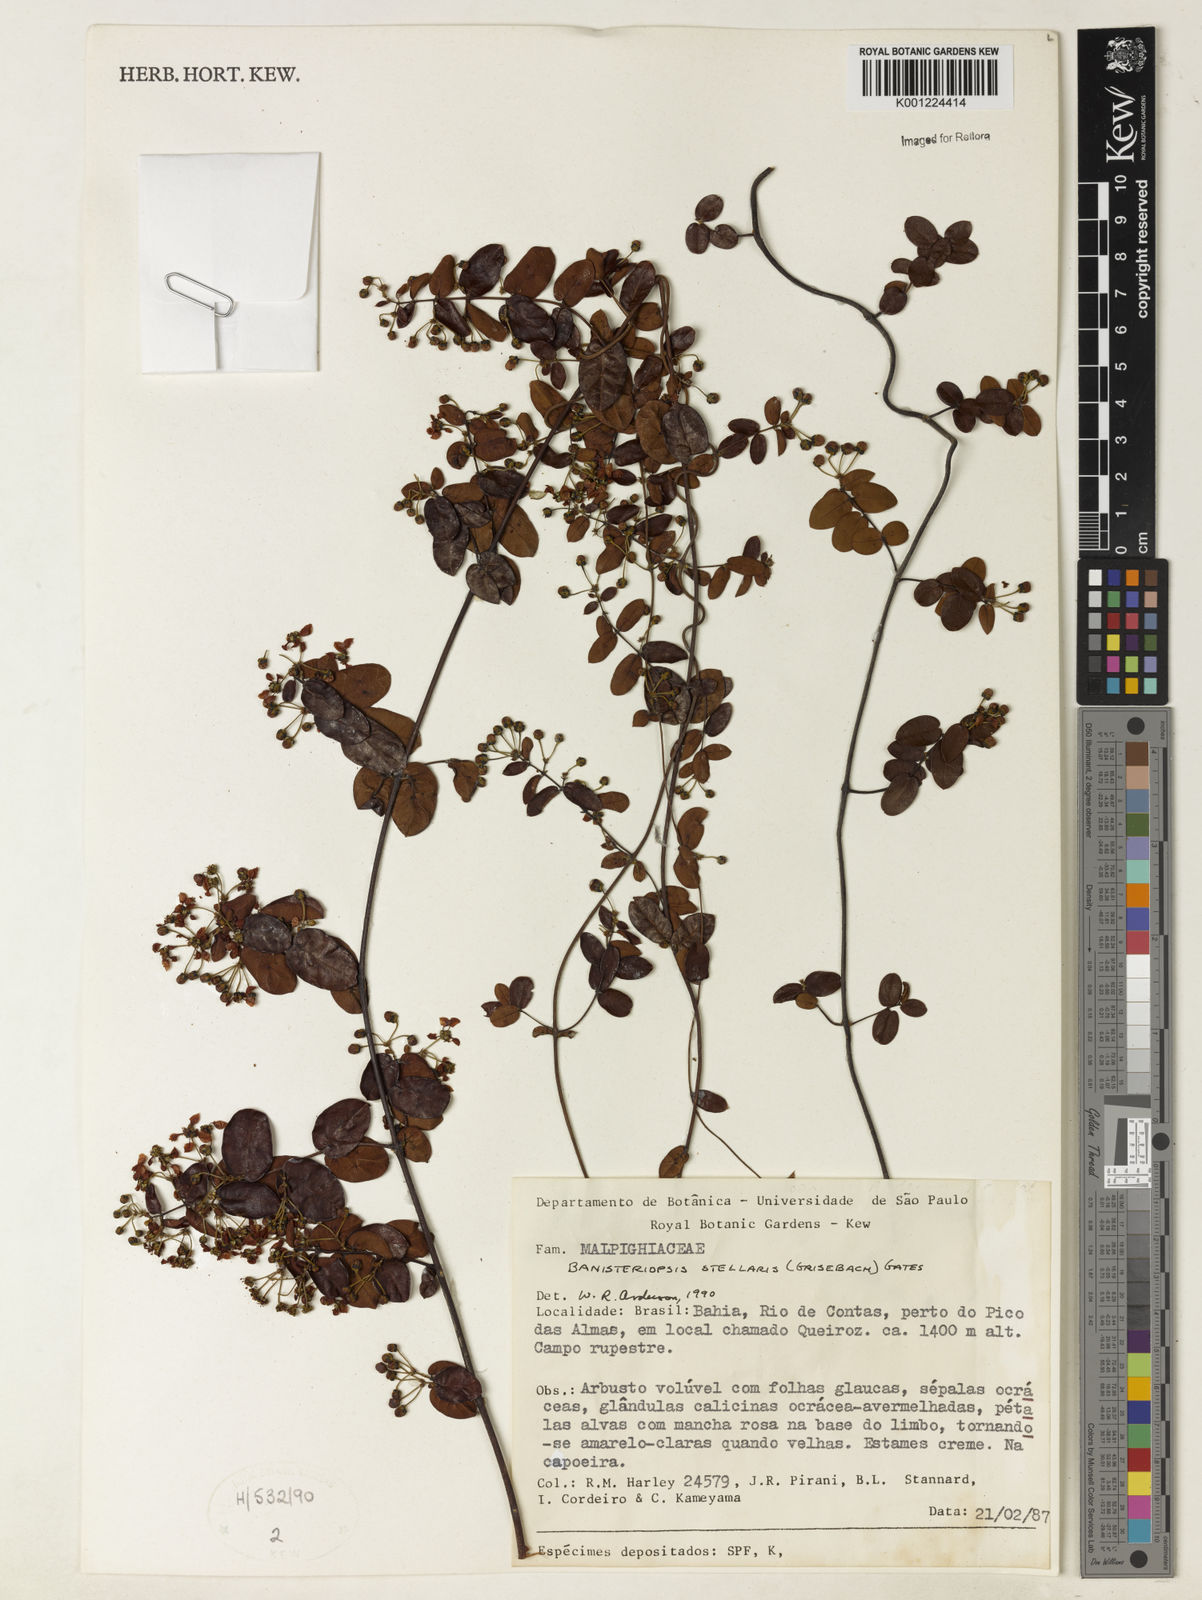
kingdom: Plantae
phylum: Tracheophyta
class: Magnoliopsida
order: Malpighiales
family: Malpighiaceae
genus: Banisteriopsis
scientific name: Banisteriopsis stellaris
